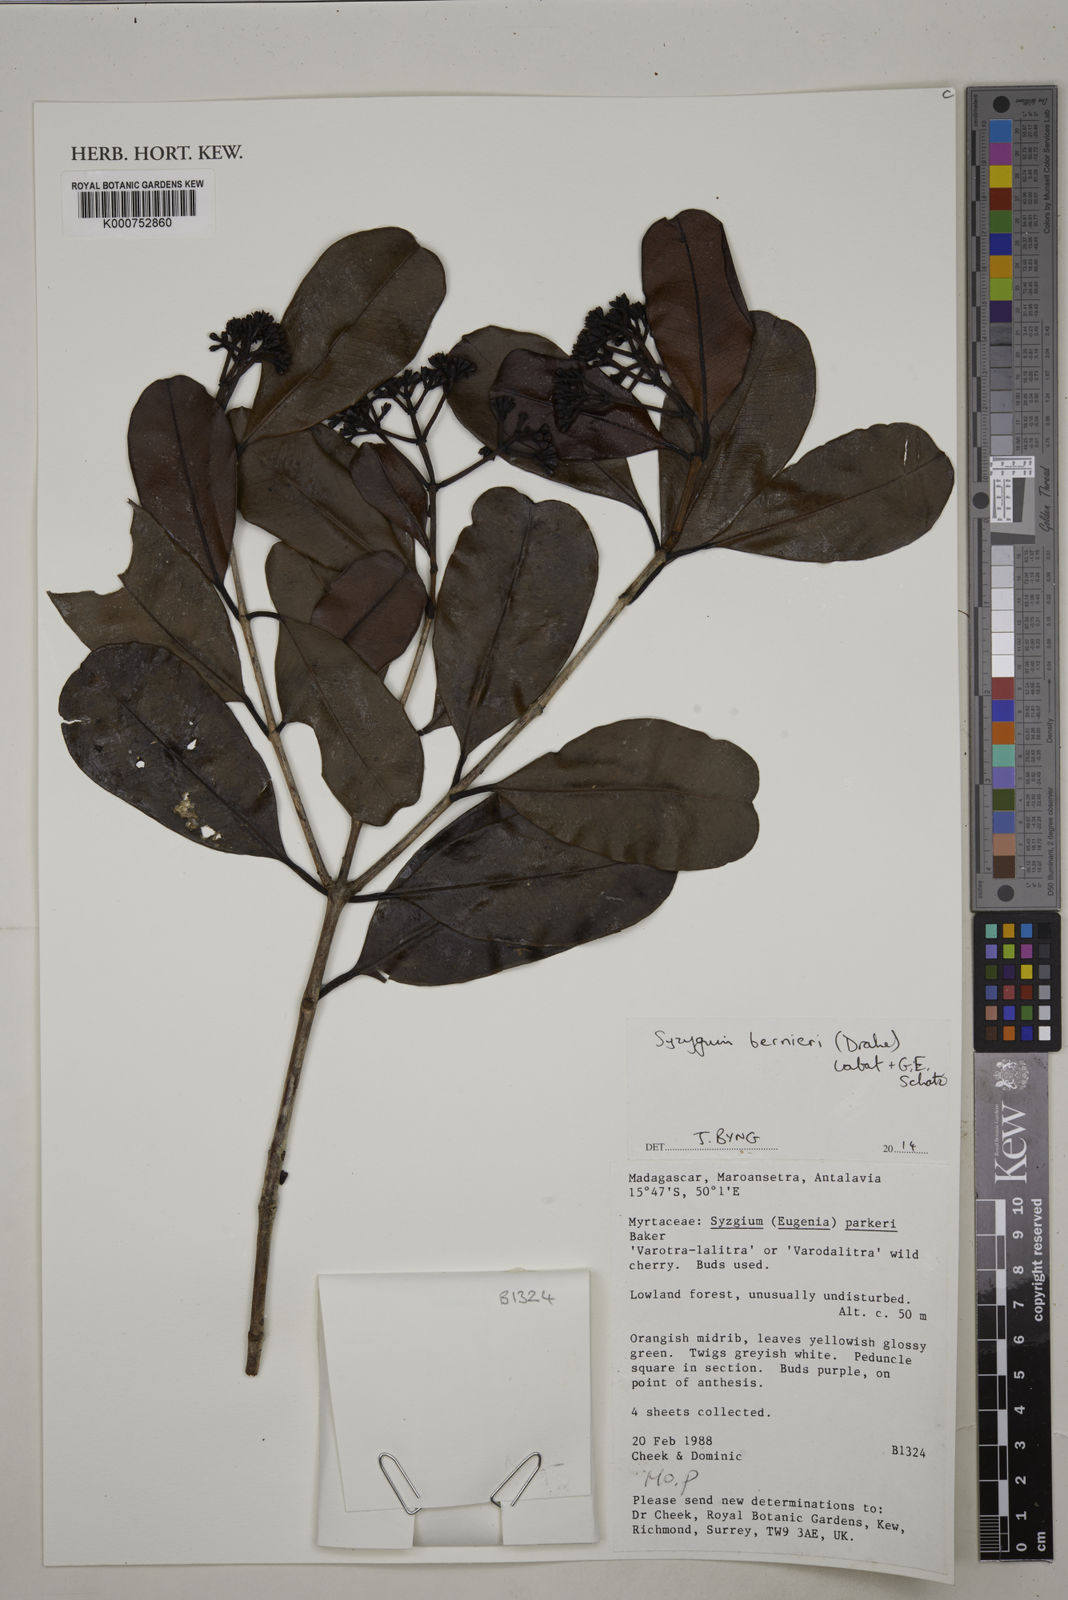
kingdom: Plantae
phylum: Tracheophyta
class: Magnoliopsida
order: Myrtales
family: Myrtaceae
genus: Syzygium
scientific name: Syzygium bernieri
